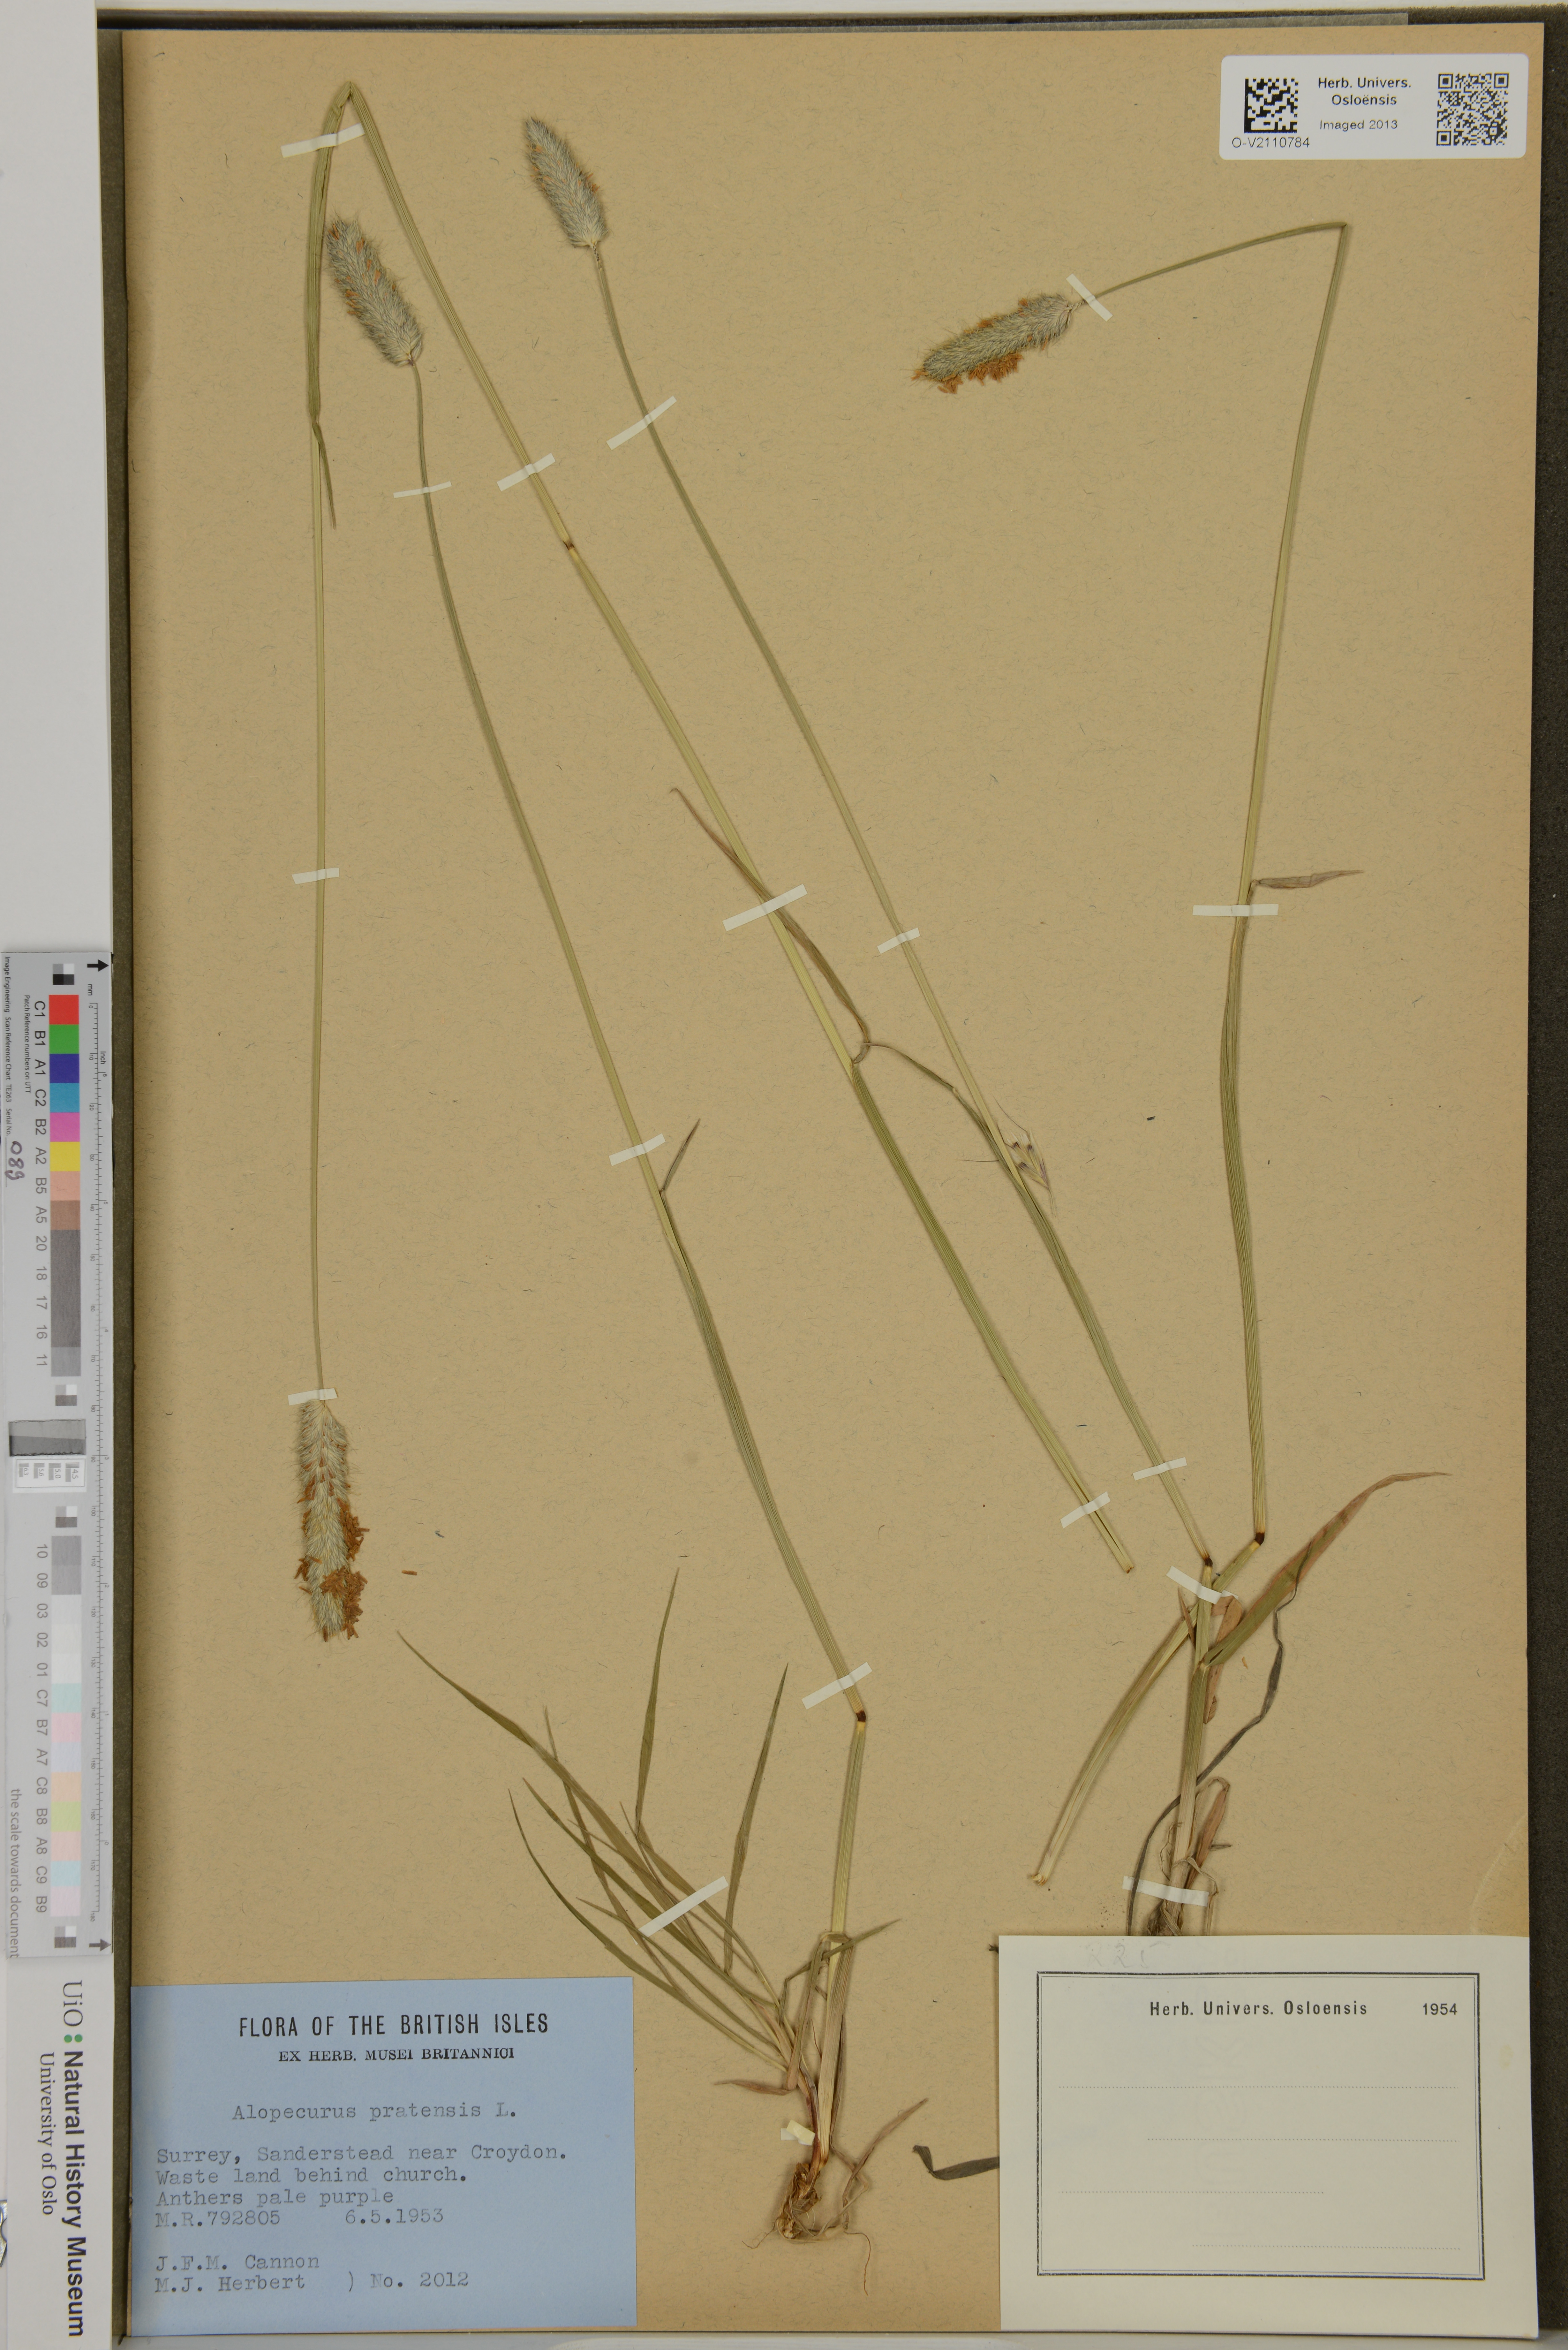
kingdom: Plantae
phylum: Tracheophyta
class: Liliopsida
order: Poales
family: Poaceae
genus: Alopecurus
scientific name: Alopecurus pratensis
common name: Meadow foxtail
